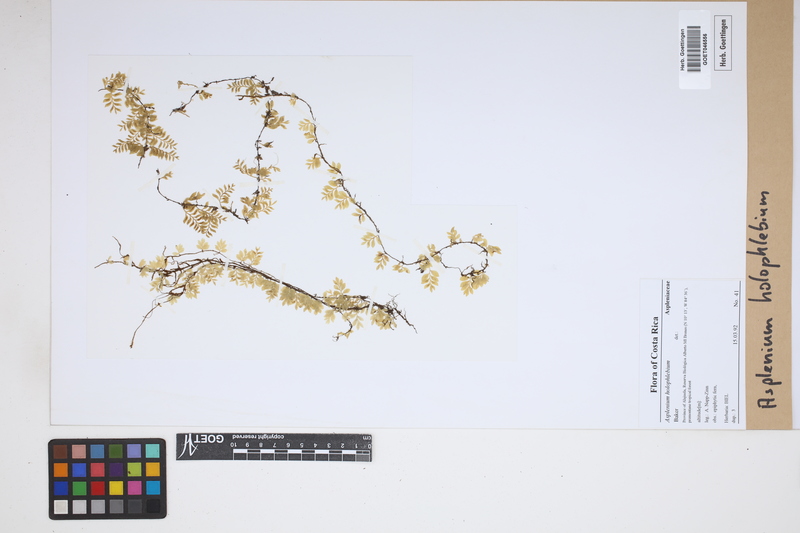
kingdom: Plantae
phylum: Tracheophyta
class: Polypodiopsida
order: Polypodiales
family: Aspleniaceae
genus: Asplenium
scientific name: Asplenium holophlebium
